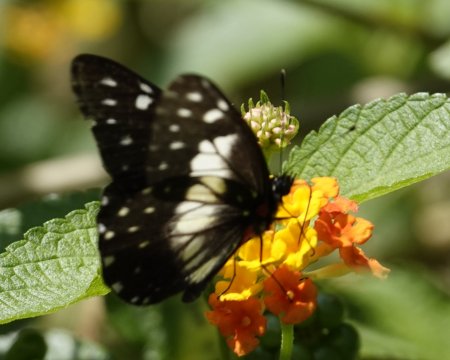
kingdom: Animalia
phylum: Arthropoda
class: Insecta
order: Lepidoptera
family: Pieridae
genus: Catasticta
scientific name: Catasticta sisamnus
